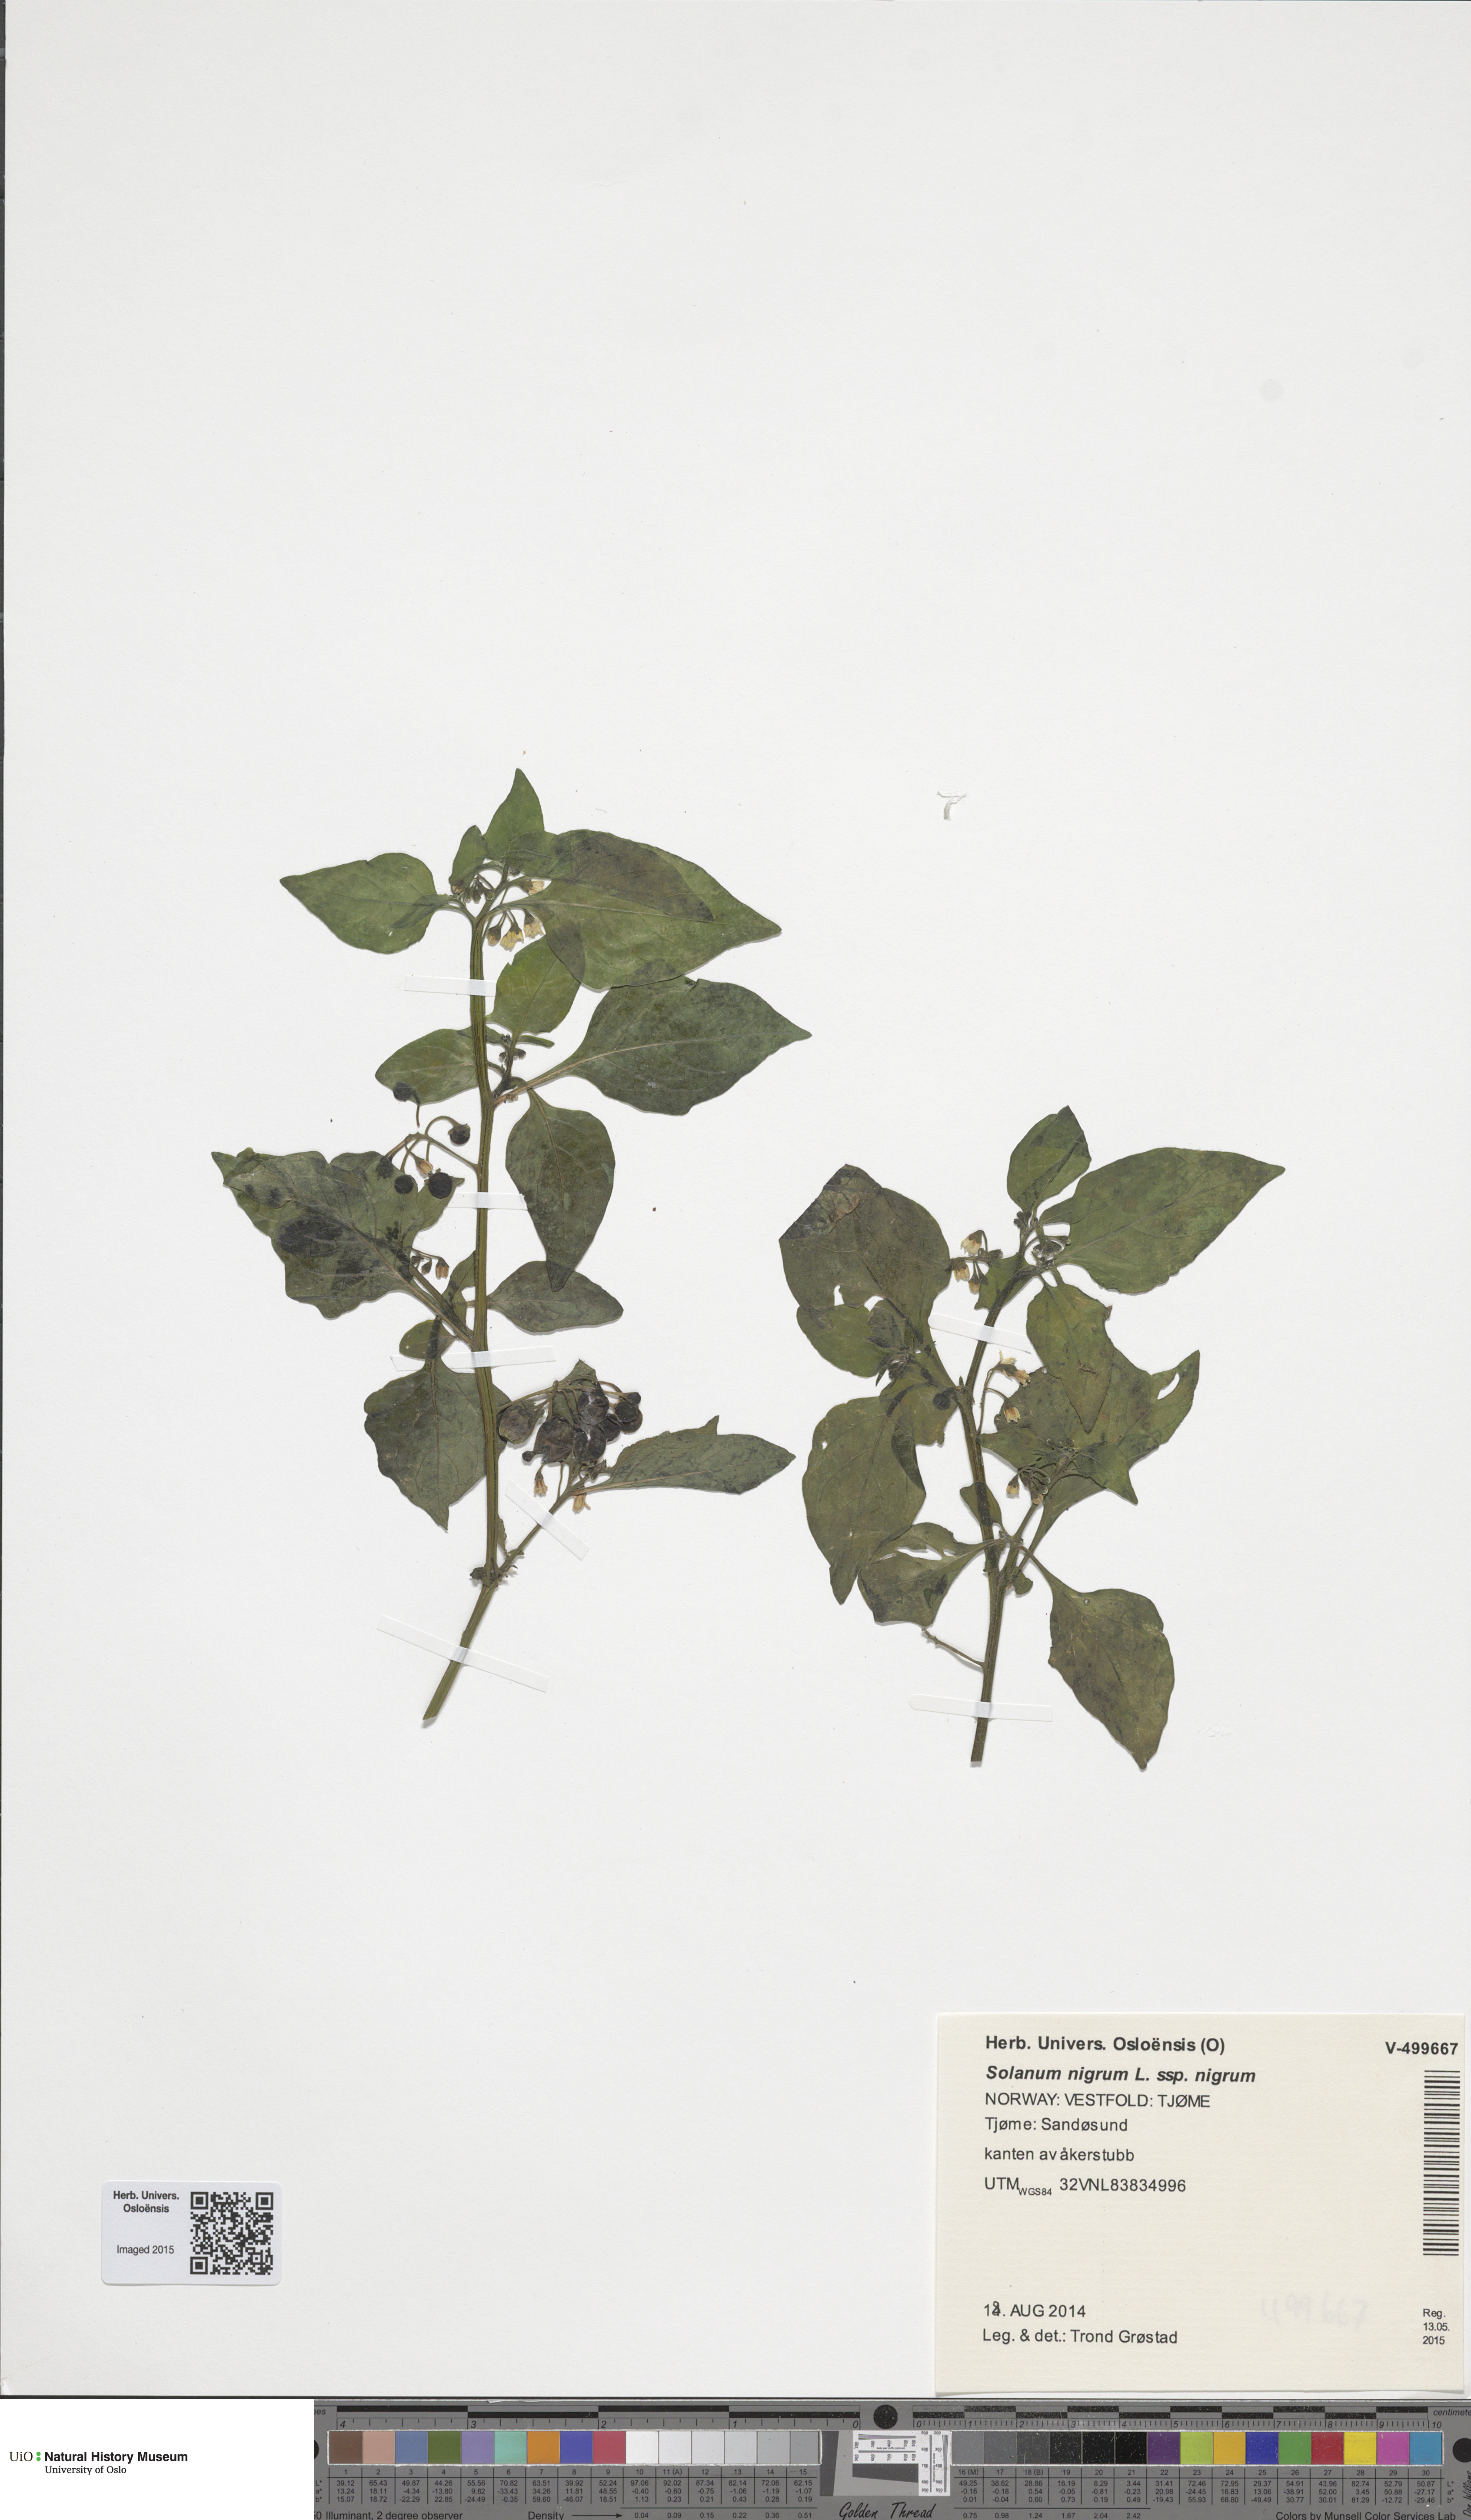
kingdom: Plantae
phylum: Tracheophyta
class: Magnoliopsida
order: Solanales
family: Solanaceae
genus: Solanum
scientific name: Solanum nigrum
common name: Black nightshade
